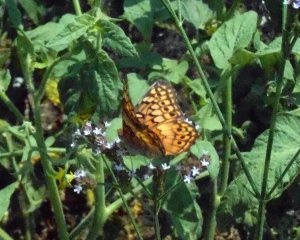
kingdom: Animalia
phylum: Arthropoda
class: Insecta
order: Lepidoptera
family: Nymphalidae
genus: Euptoieta
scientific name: Euptoieta claudia
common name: Variegated Fritillary
